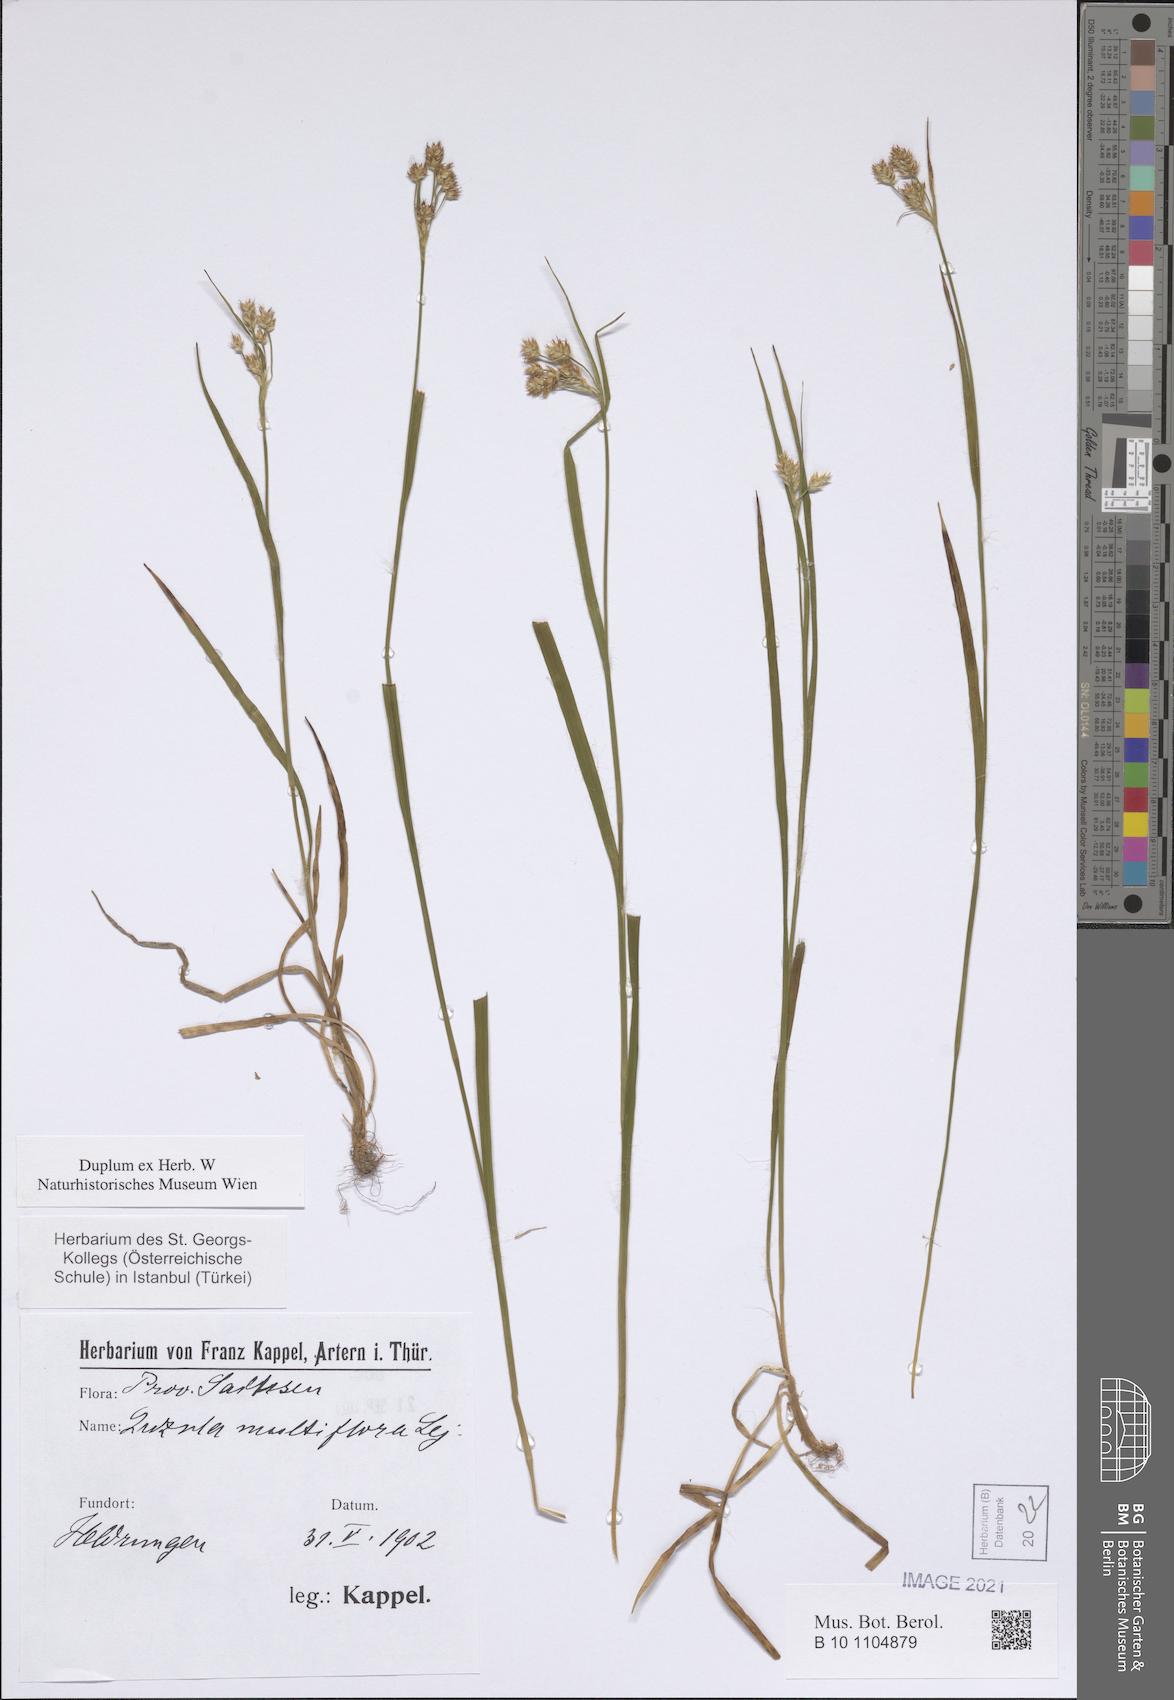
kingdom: Plantae
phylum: Tracheophyta
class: Liliopsida
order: Poales
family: Juncaceae
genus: Luzula
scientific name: Luzula multiflora
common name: Heath wood-rush
